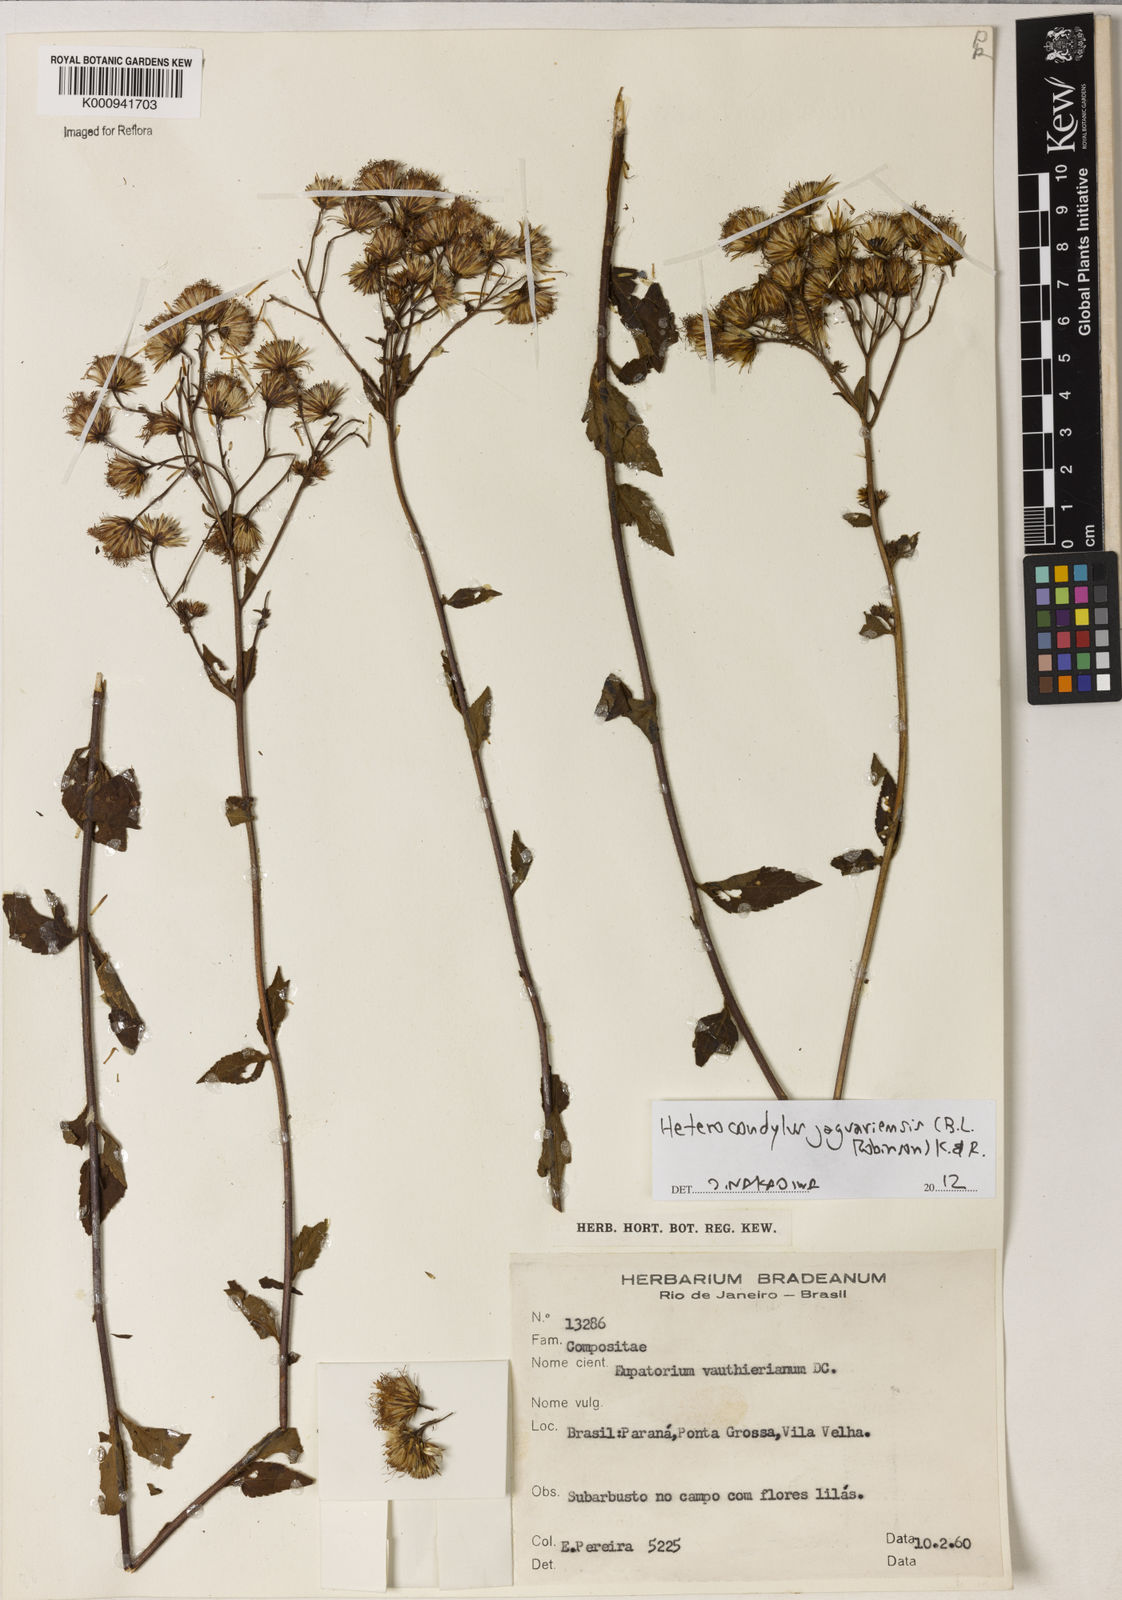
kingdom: Plantae
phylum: Tracheophyta
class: Magnoliopsida
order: Asterales
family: Asteraceae
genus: Heterocondylus
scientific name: Heterocondylus jaraguensis
